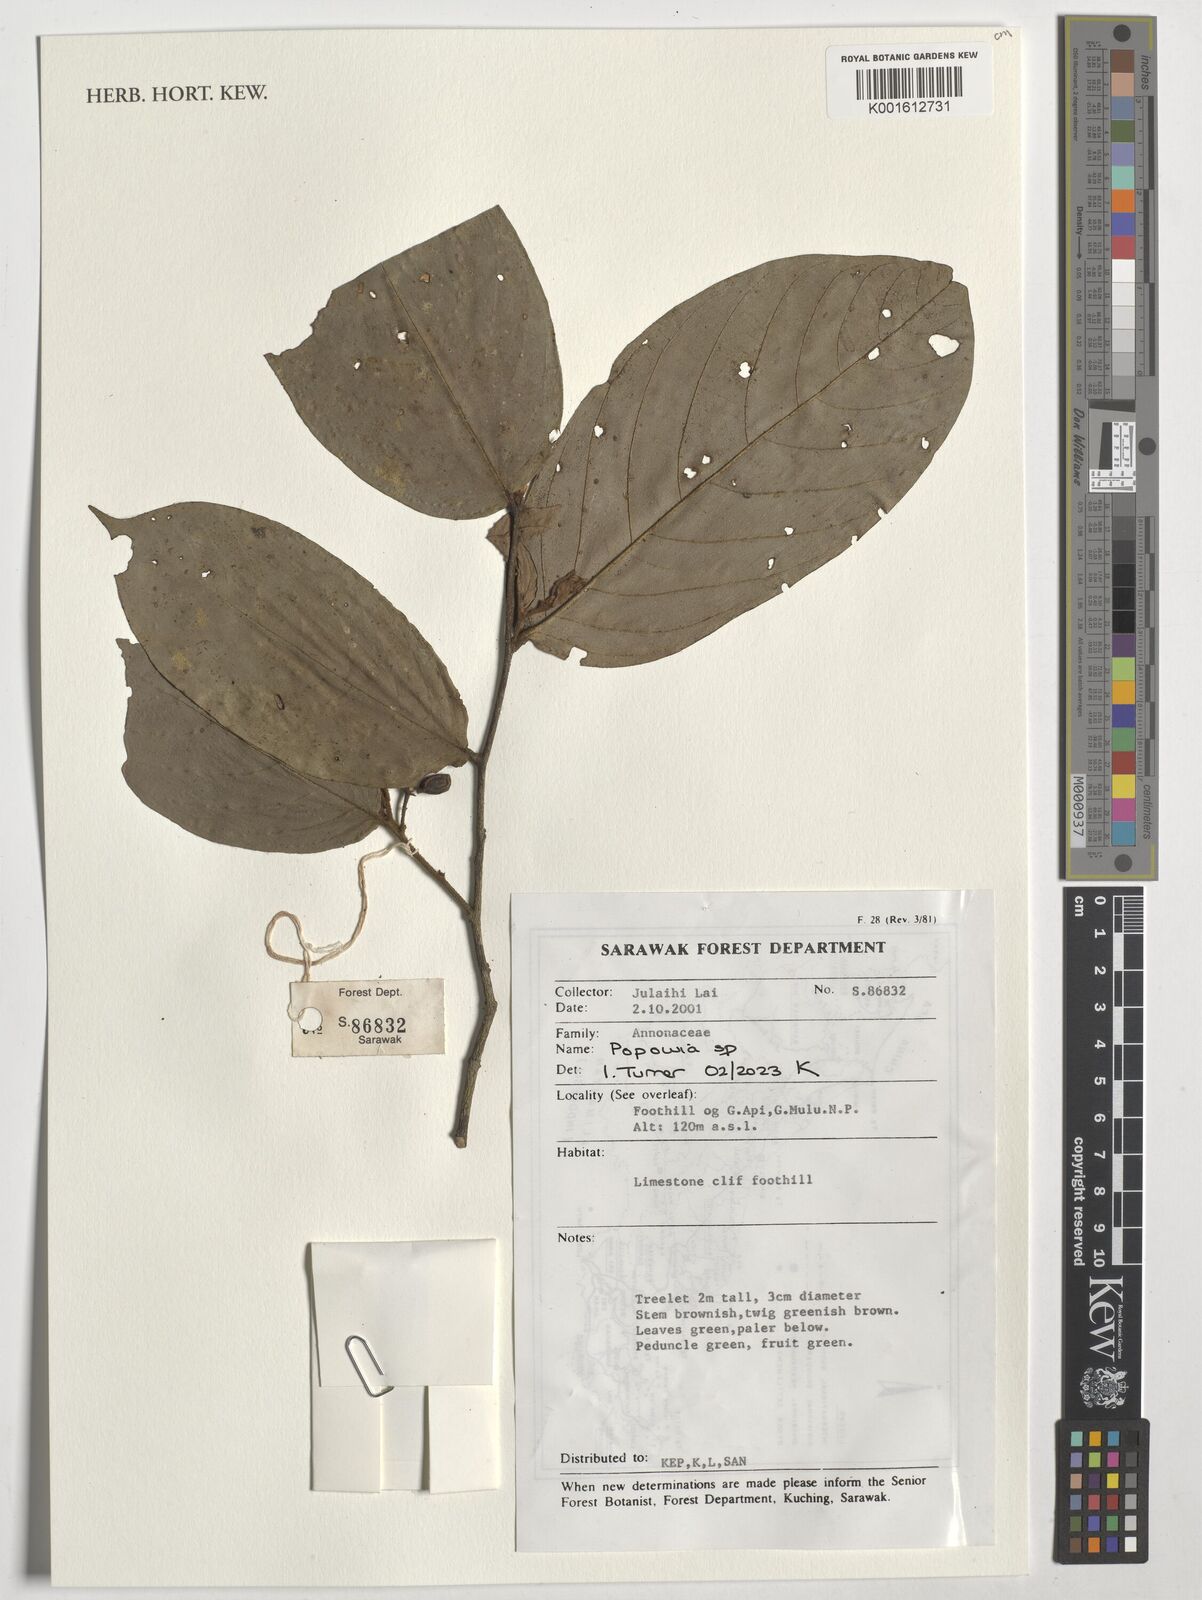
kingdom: Plantae
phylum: Tracheophyta
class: Magnoliopsida
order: Magnoliales
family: Annonaceae
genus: Popowia
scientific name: Popowia
